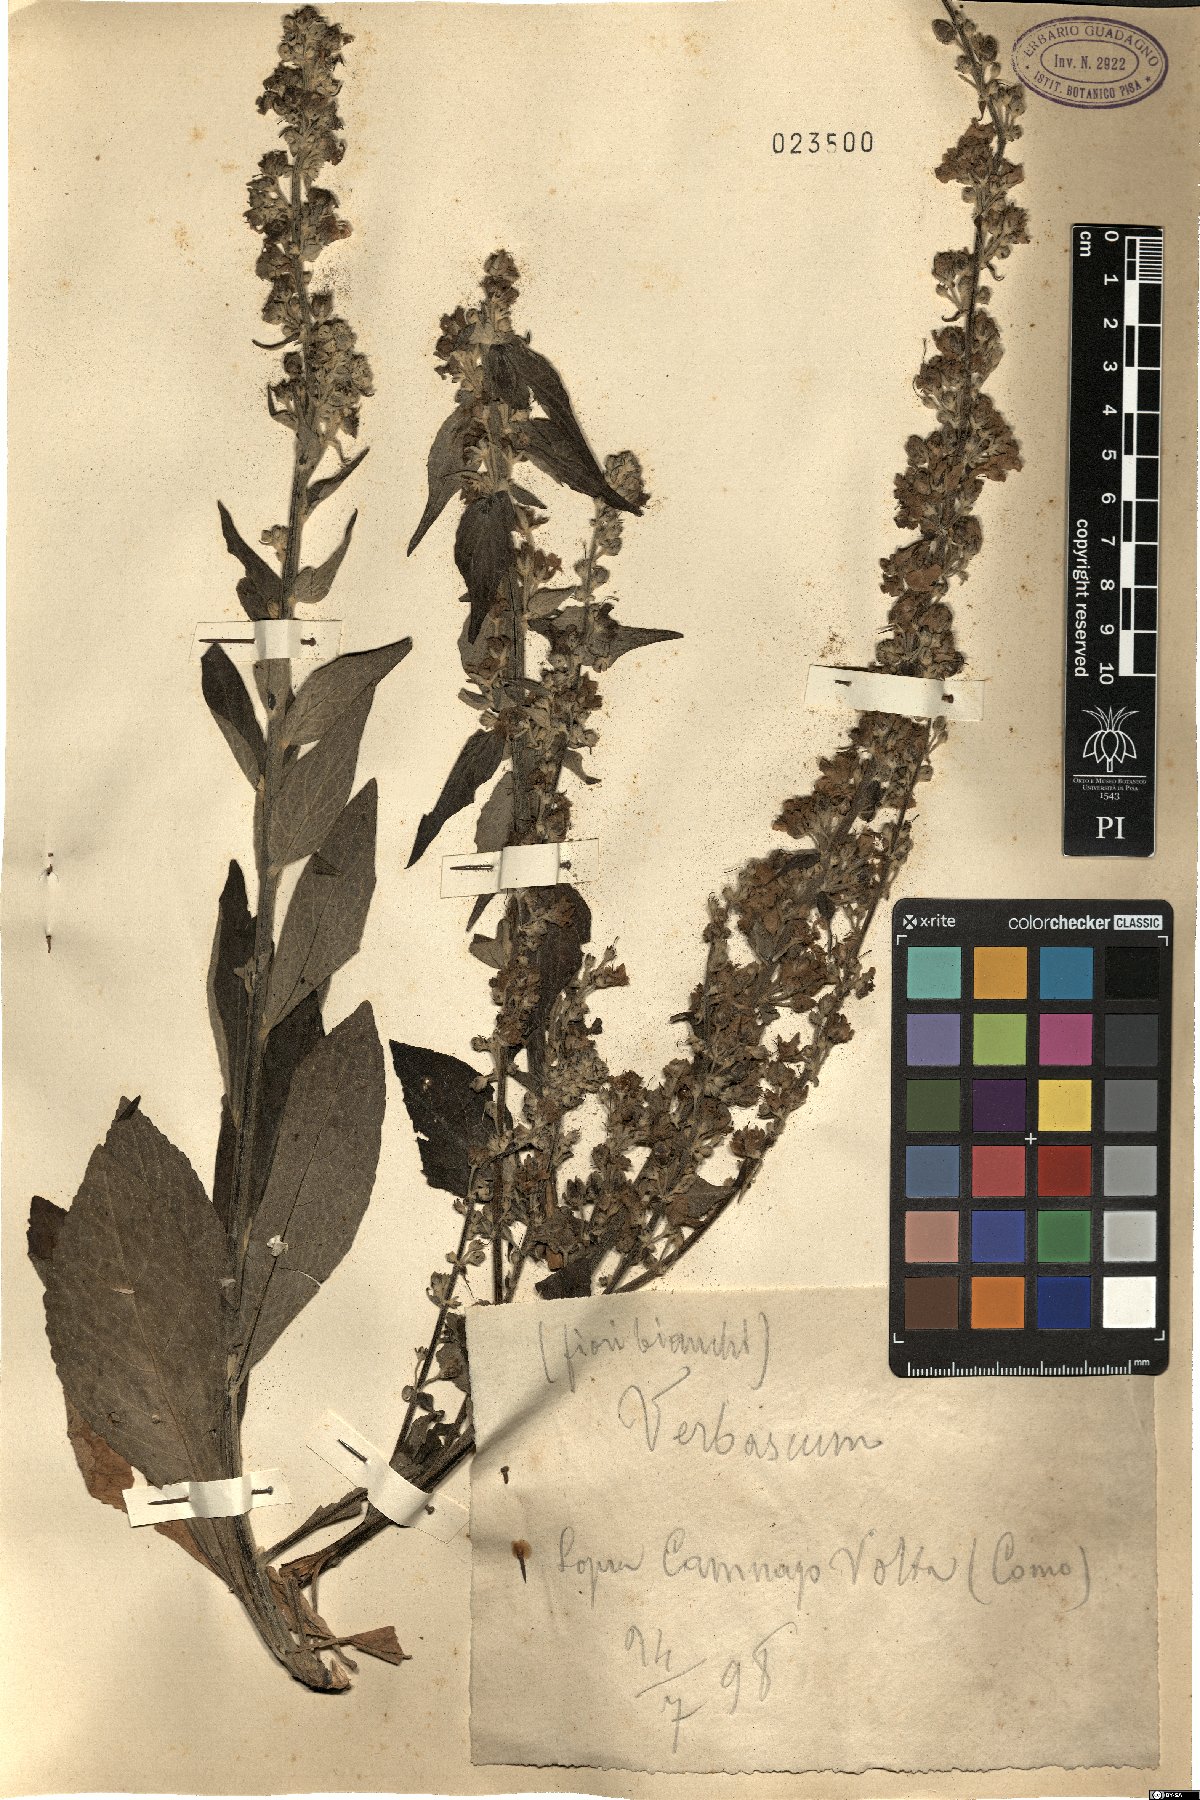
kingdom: Plantae
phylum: Tracheophyta
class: Magnoliopsida
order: Lamiales
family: Scrophulariaceae
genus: Verbascum
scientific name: Verbascum
